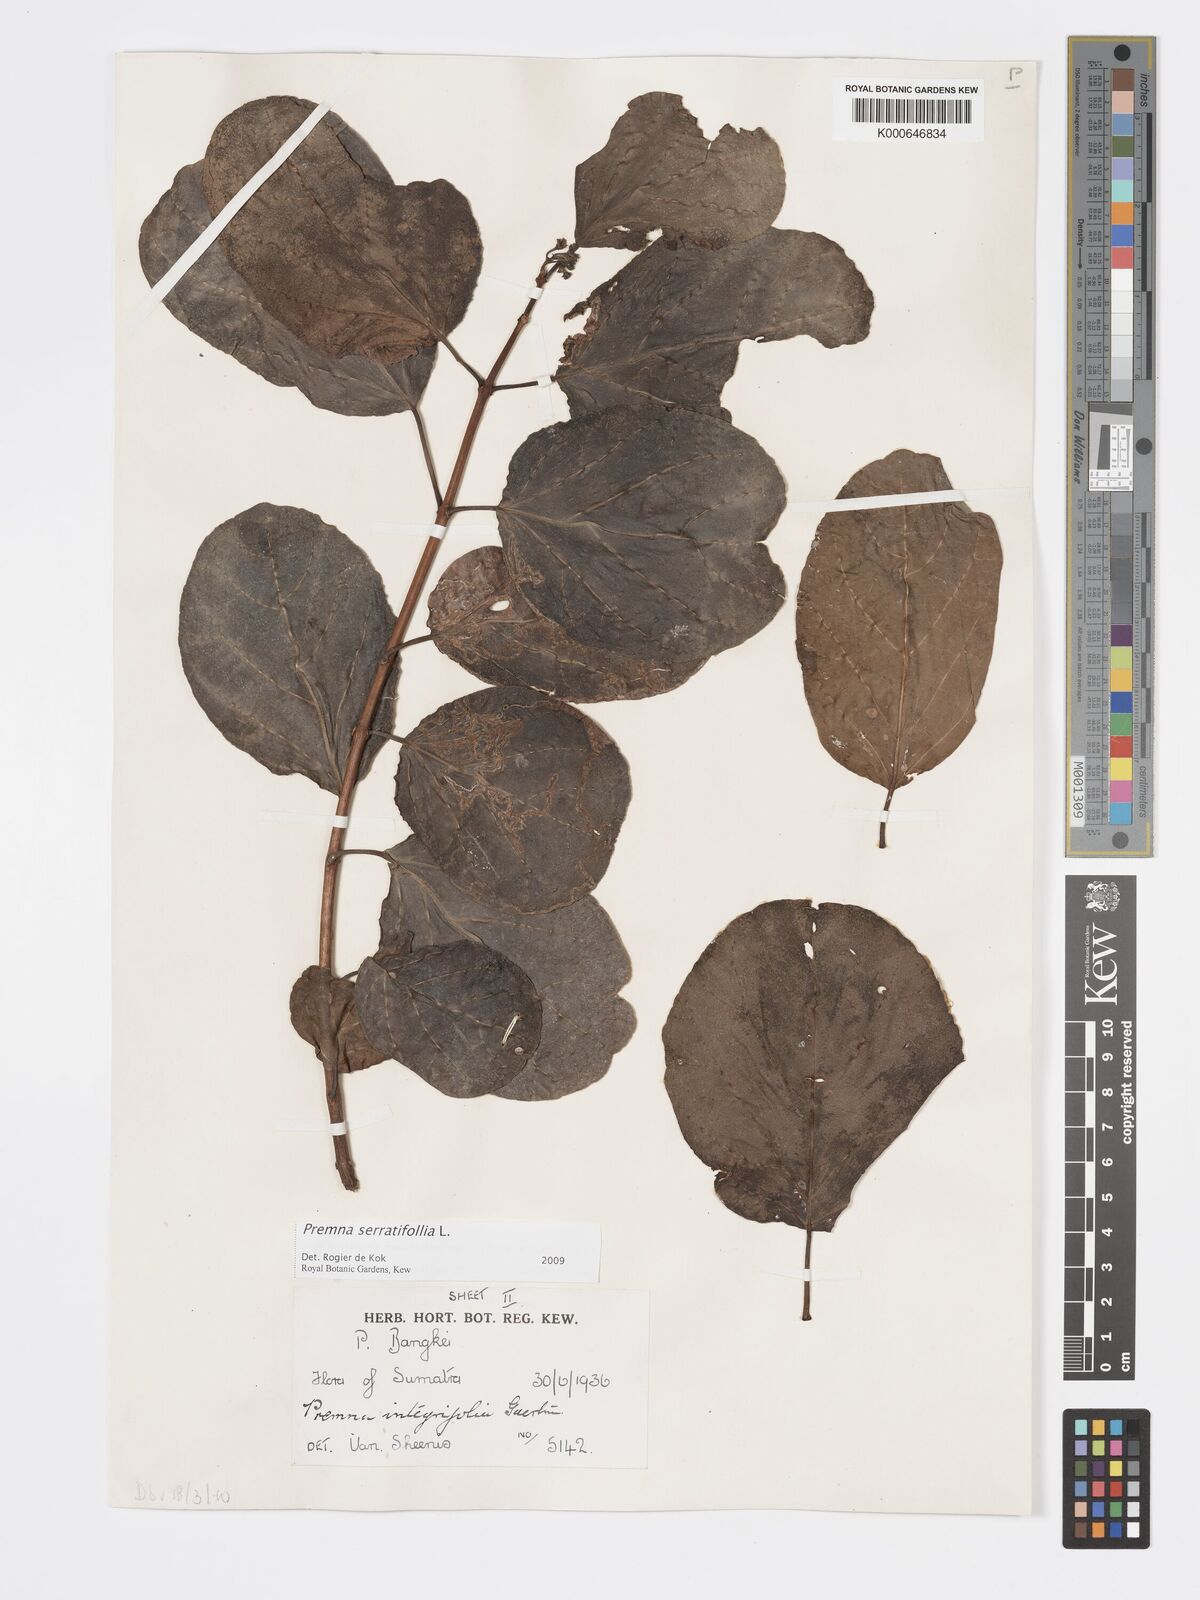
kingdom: Plantae
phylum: Tracheophyta
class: Magnoliopsida
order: Lamiales
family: Lamiaceae
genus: Premna
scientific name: Premna serratifolia
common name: Bastard guelder
